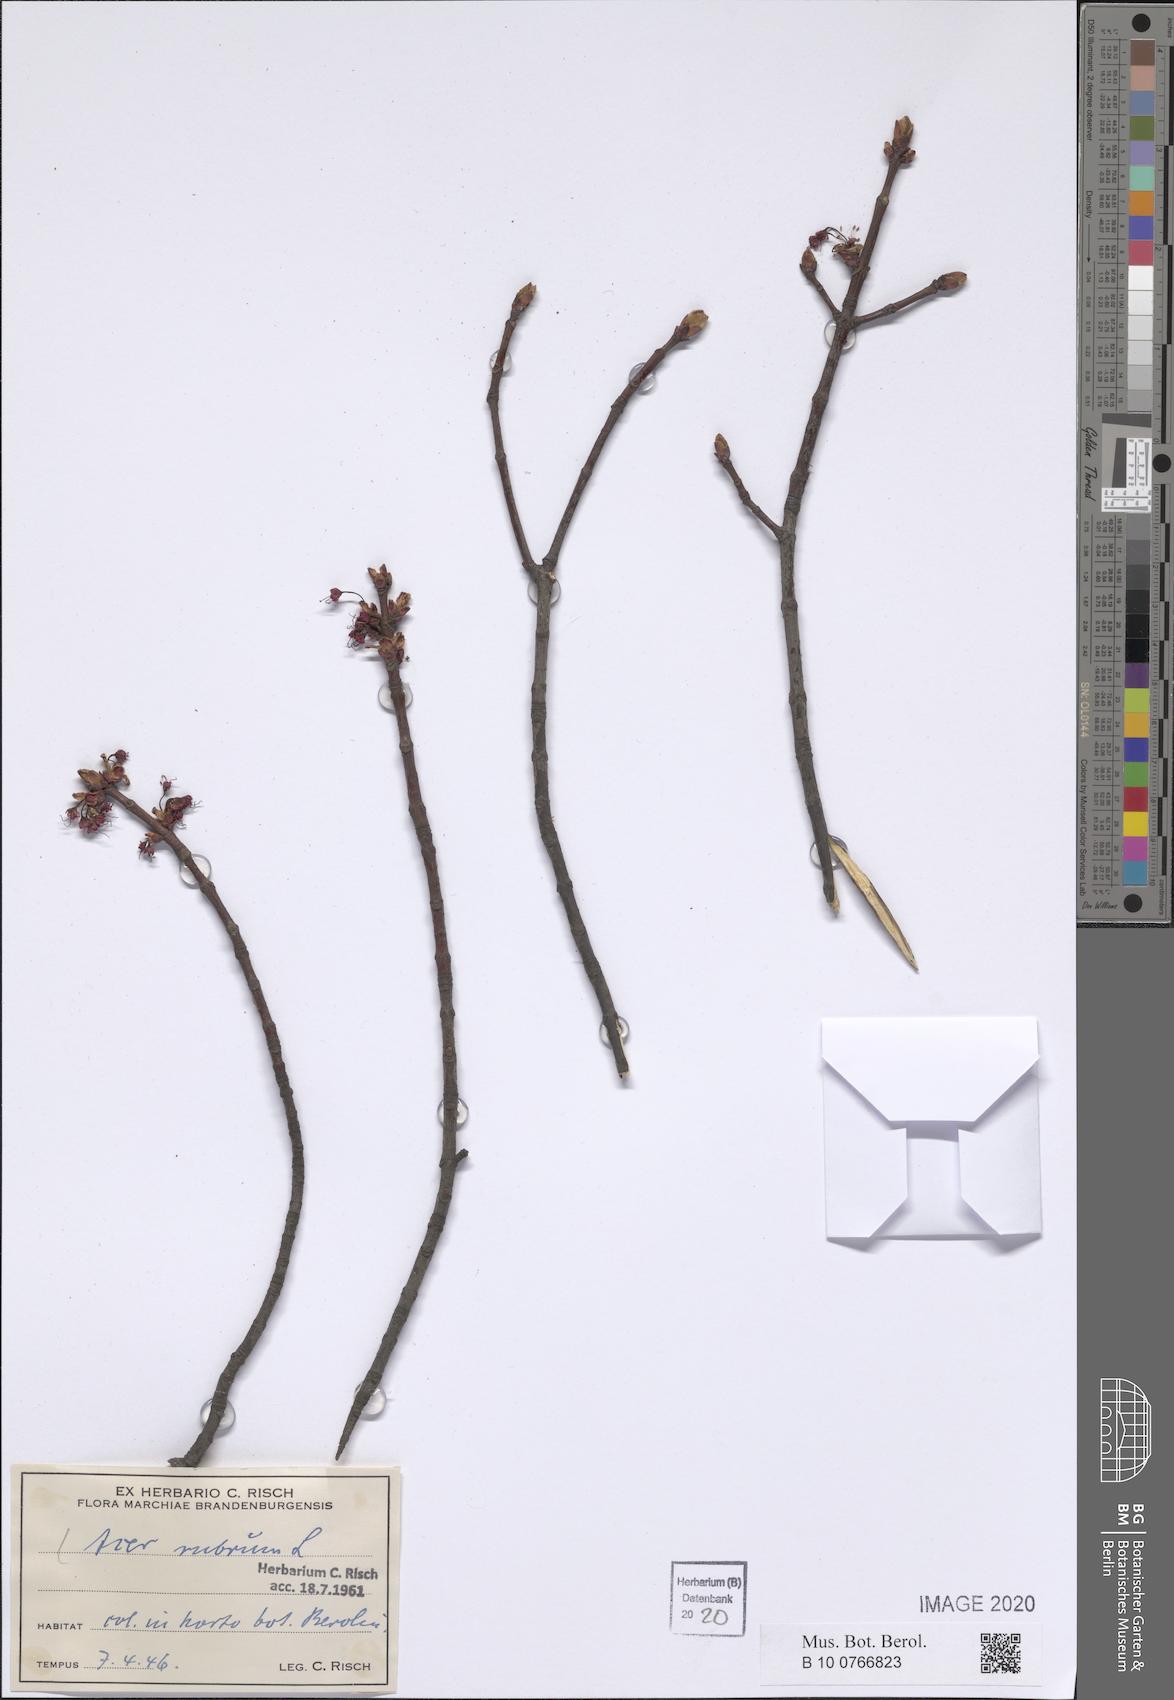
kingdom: Plantae
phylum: Tracheophyta
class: Magnoliopsida
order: Sapindales
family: Sapindaceae
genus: Acer
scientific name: Acer rubrum
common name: Red maple
